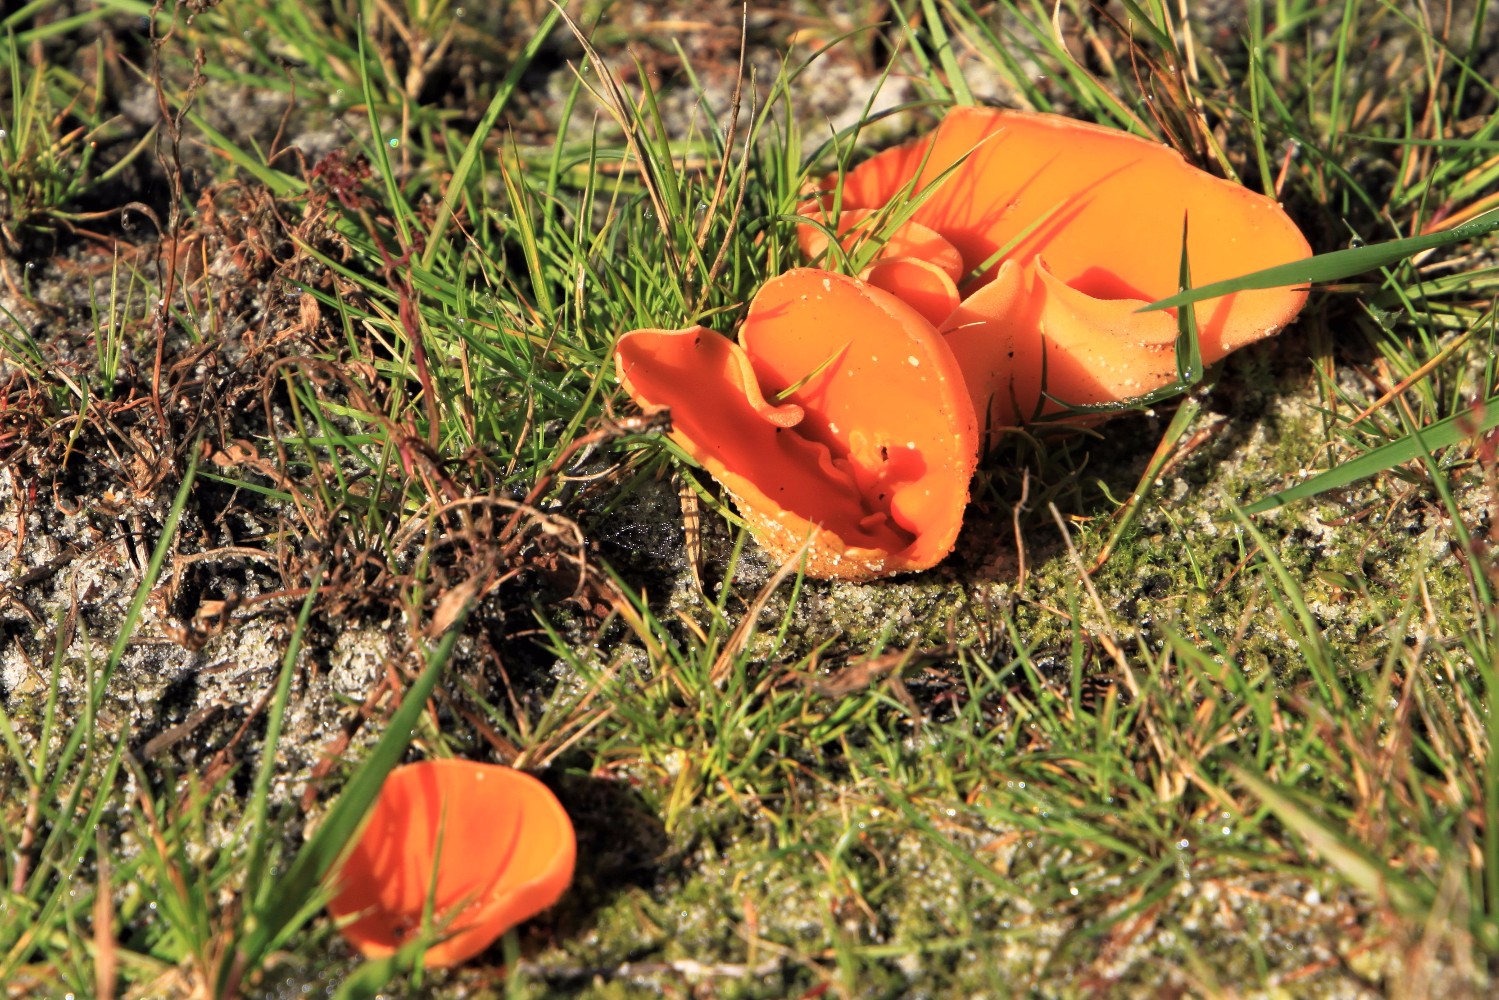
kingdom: Fungi
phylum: Ascomycota
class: Pezizomycetes
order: Pezizales
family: Pyronemataceae
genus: Aleuria
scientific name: Aleuria aurantia
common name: almindelig orangebæger
